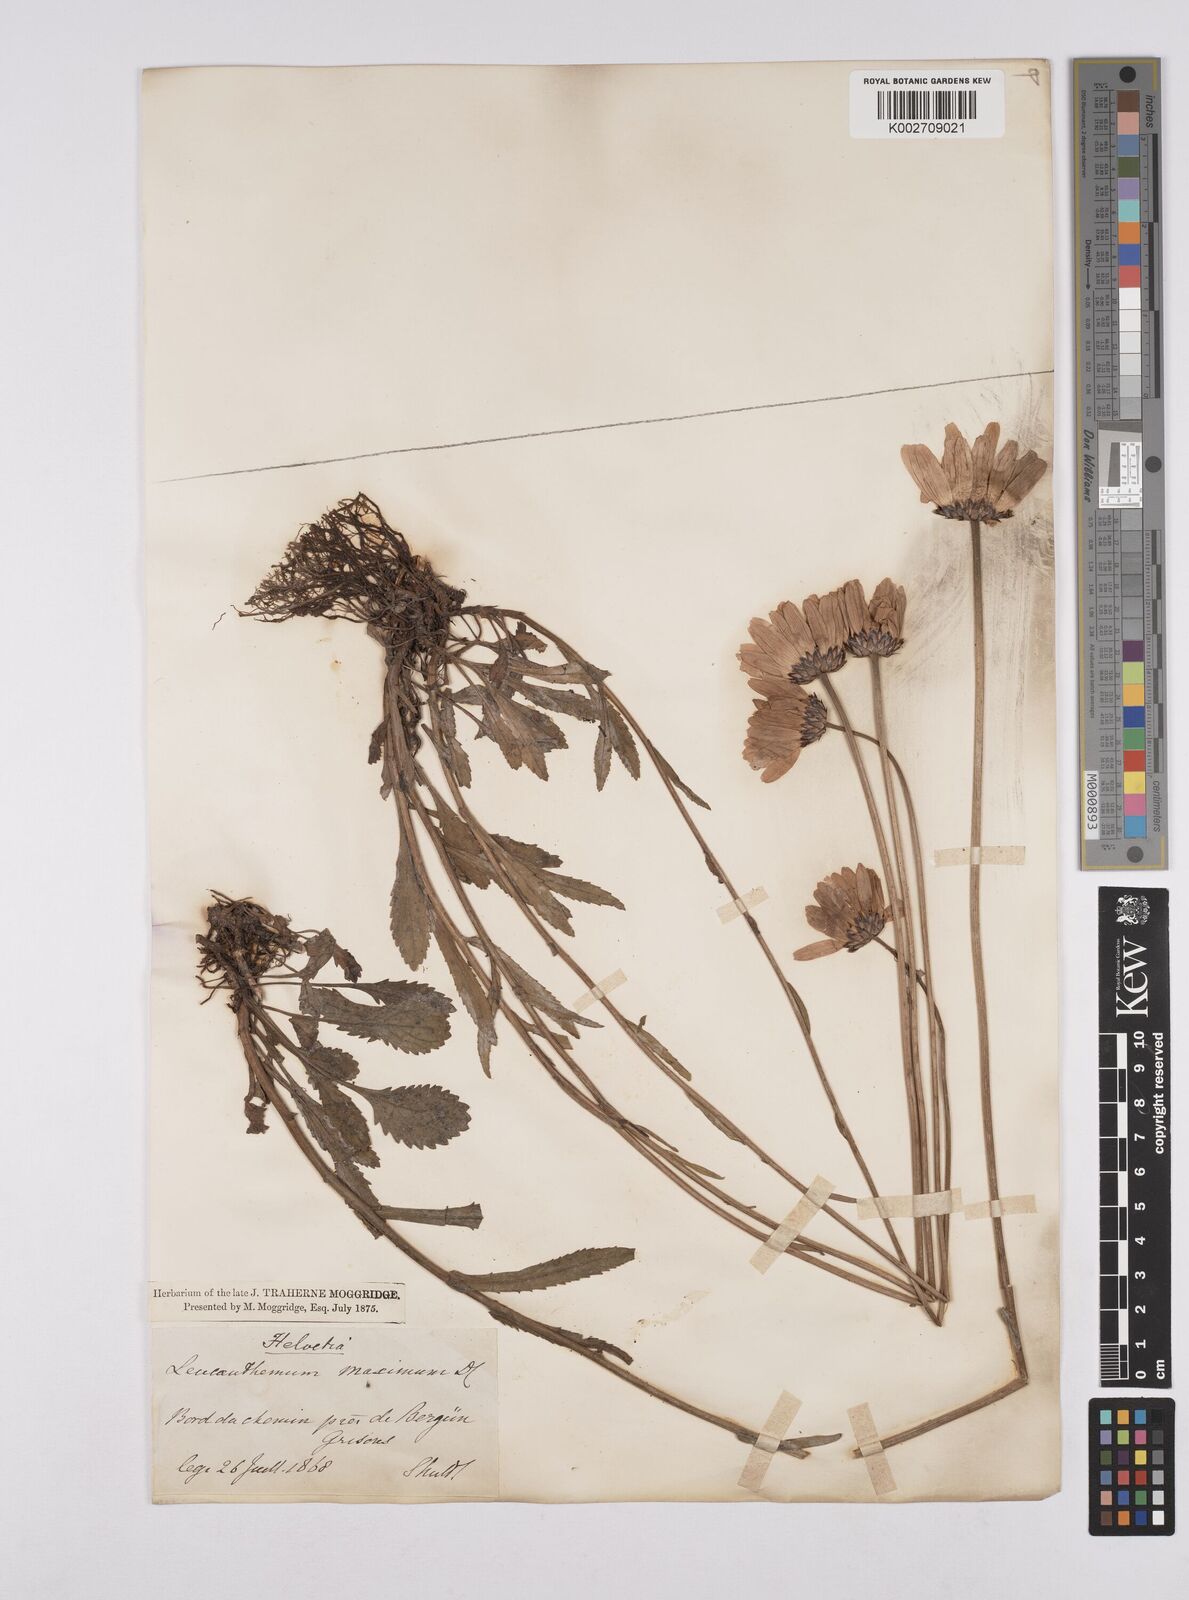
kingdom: Plantae
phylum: Tracheophyta
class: Magnoliopsida
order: Asterales
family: Asteraceae
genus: Leucanthemum
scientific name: Leucanthemum heterophyllum
